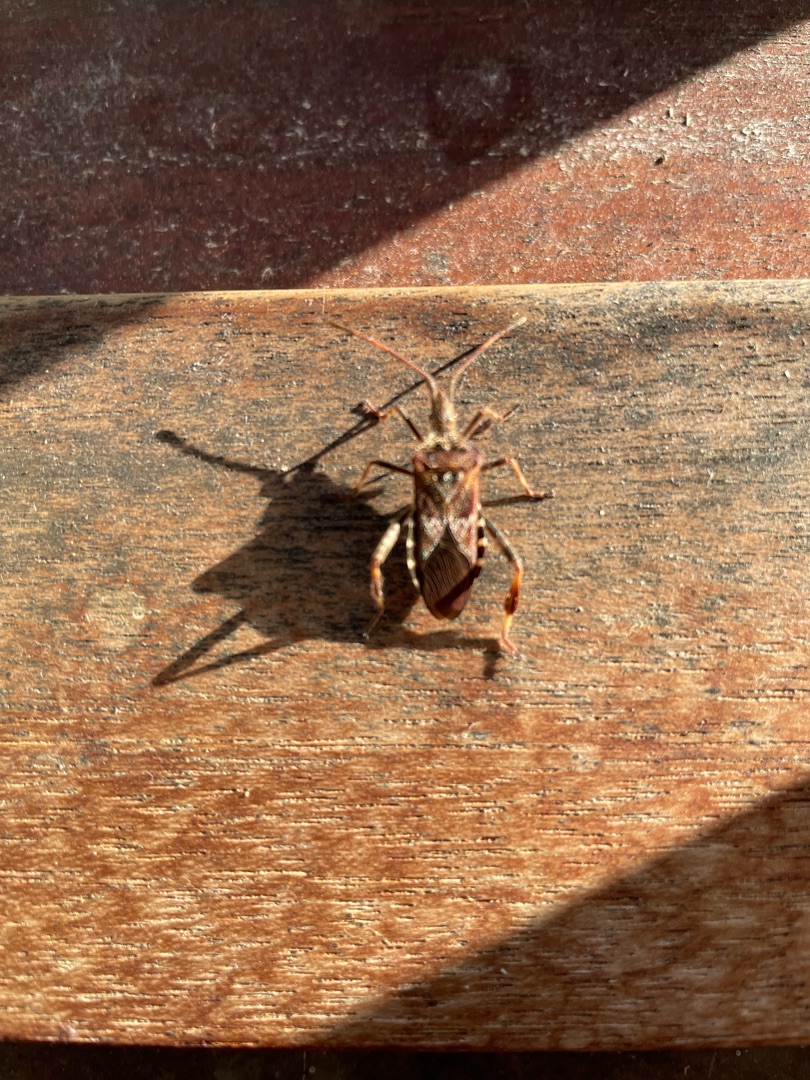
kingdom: Animalia
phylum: Arthropoda
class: Insecta
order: Hemiptera
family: Coreidae
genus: Leptoglossus
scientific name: Leptoglossus occidentalis
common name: Amerikansk fyrretæge
